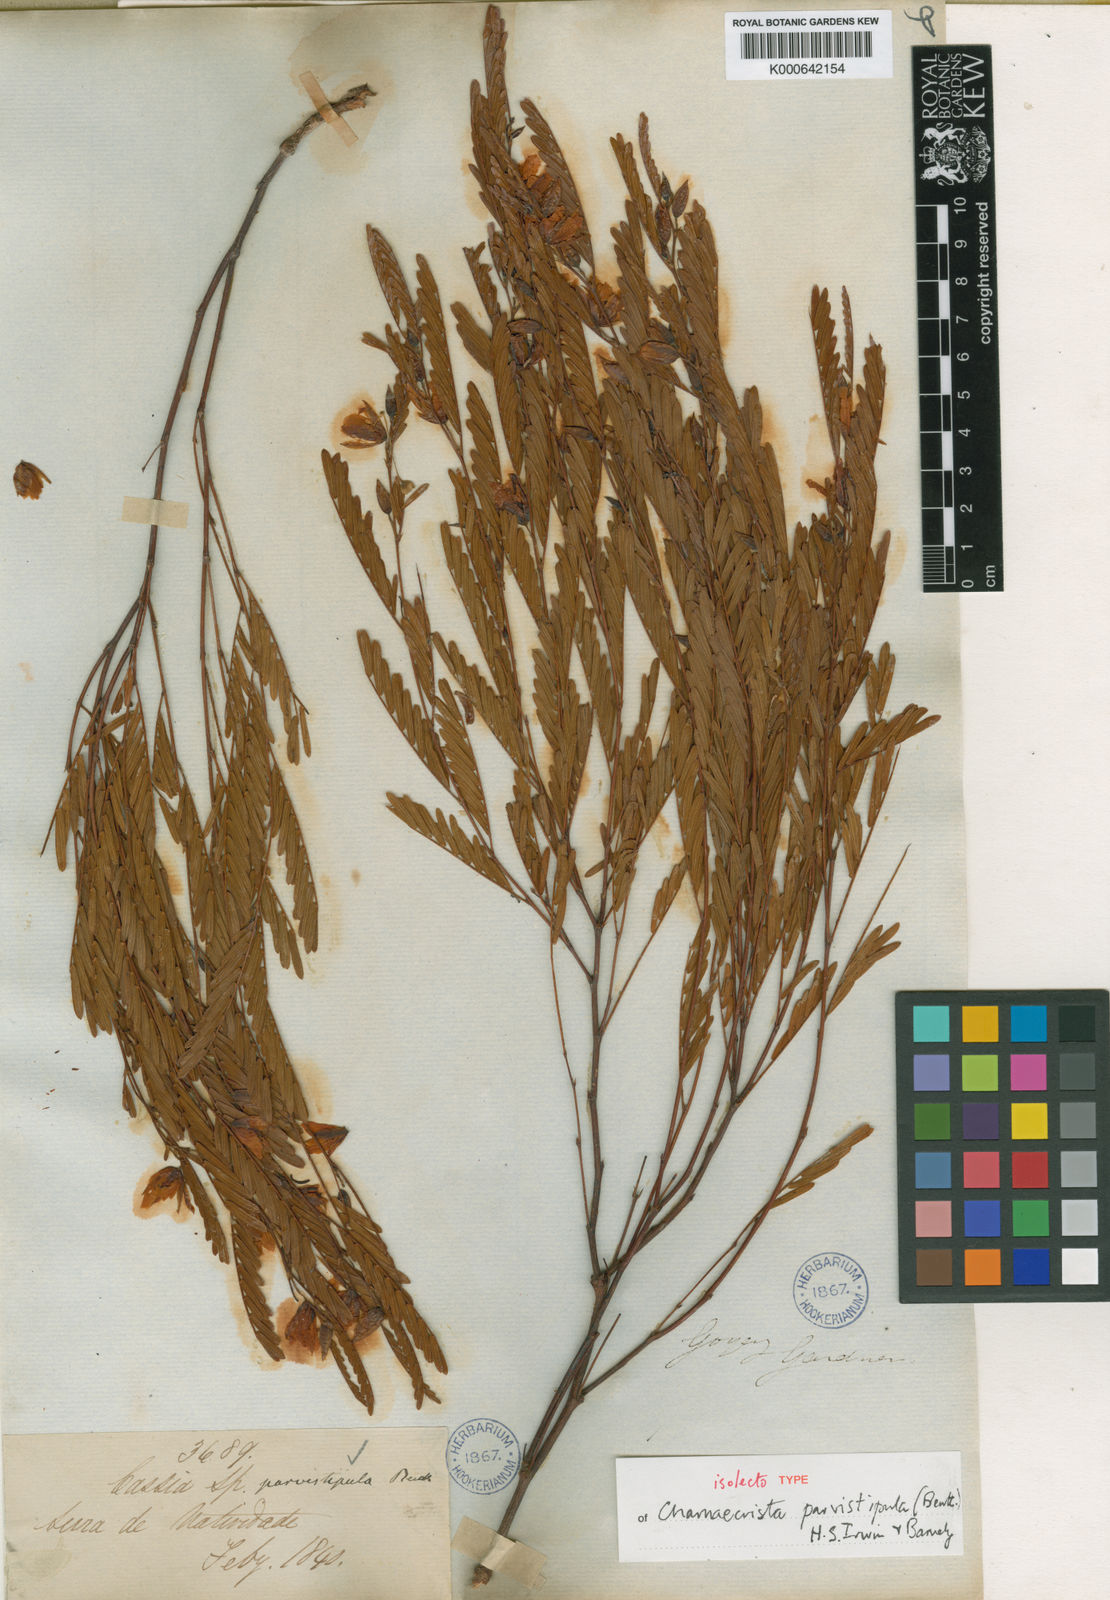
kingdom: Plantae
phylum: Tracheophyta
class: Magnoliopsida
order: Fabales
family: Fabaceae
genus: Chamaecrista
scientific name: Chamaecrista parvistipula
